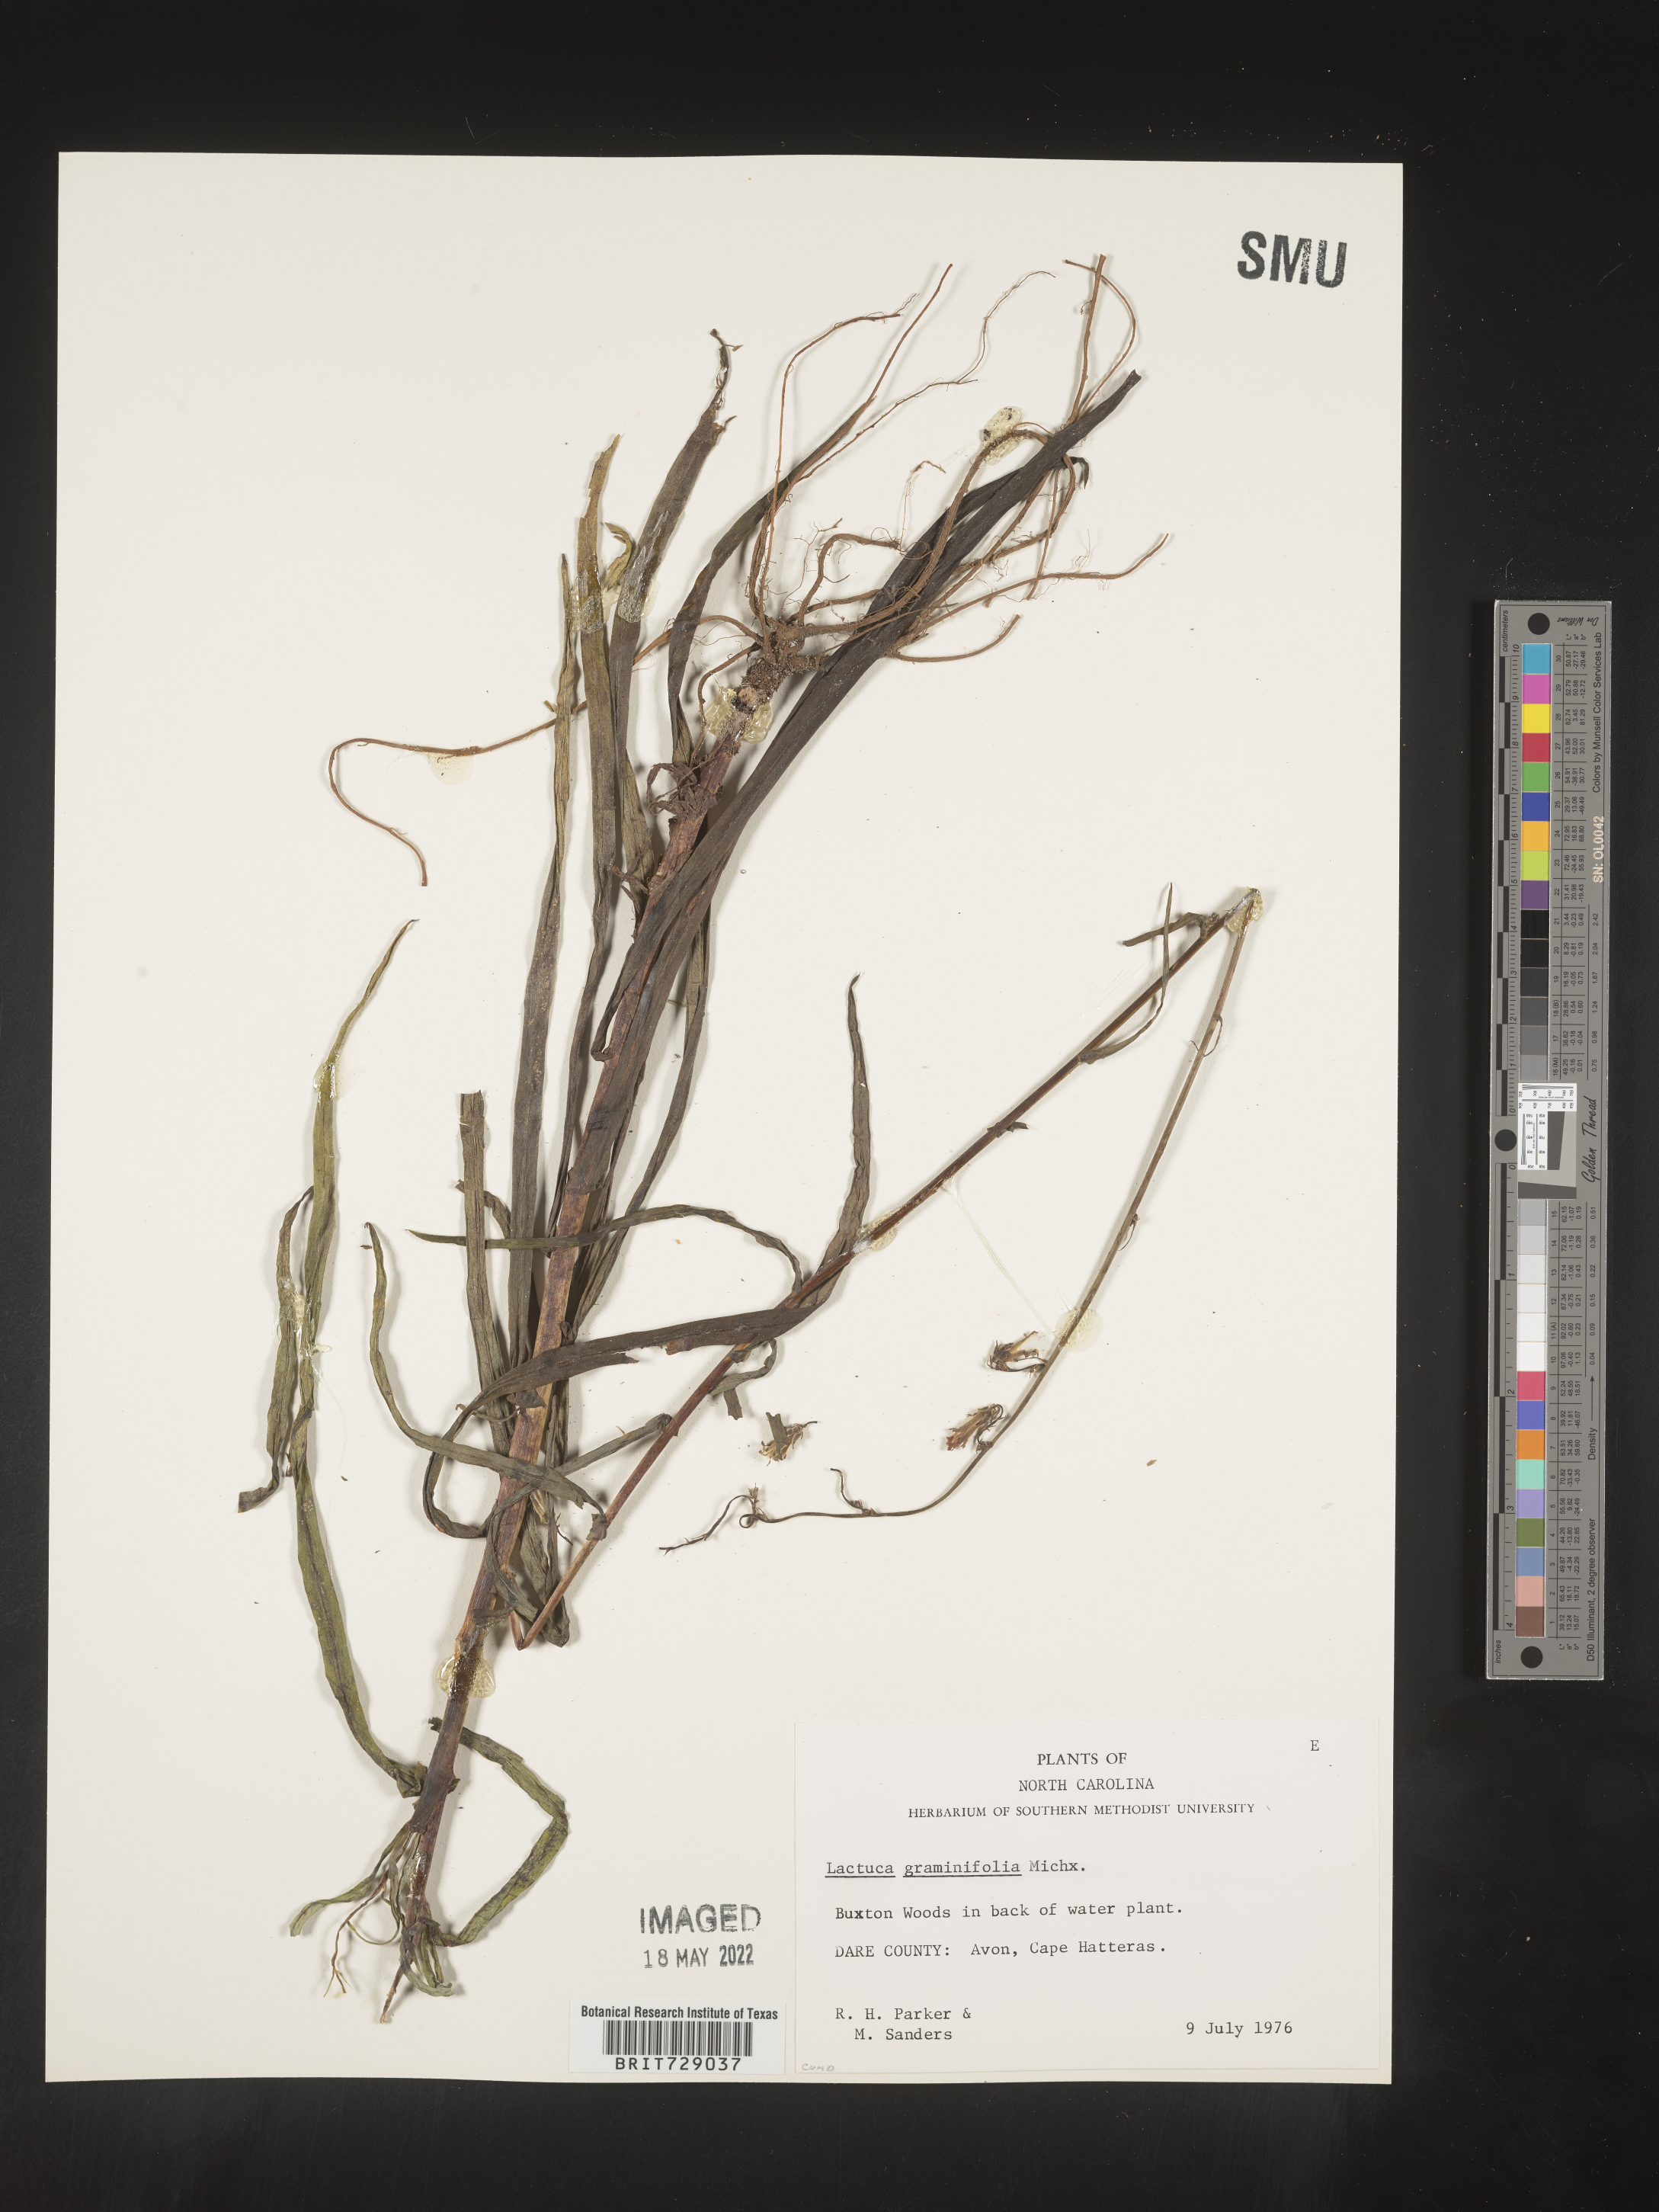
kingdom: Plantae
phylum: Tracheophyta
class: Magnoliopsida
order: Asterales
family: Asteraceae
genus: Lactuca
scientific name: Lactuca graminifolia
